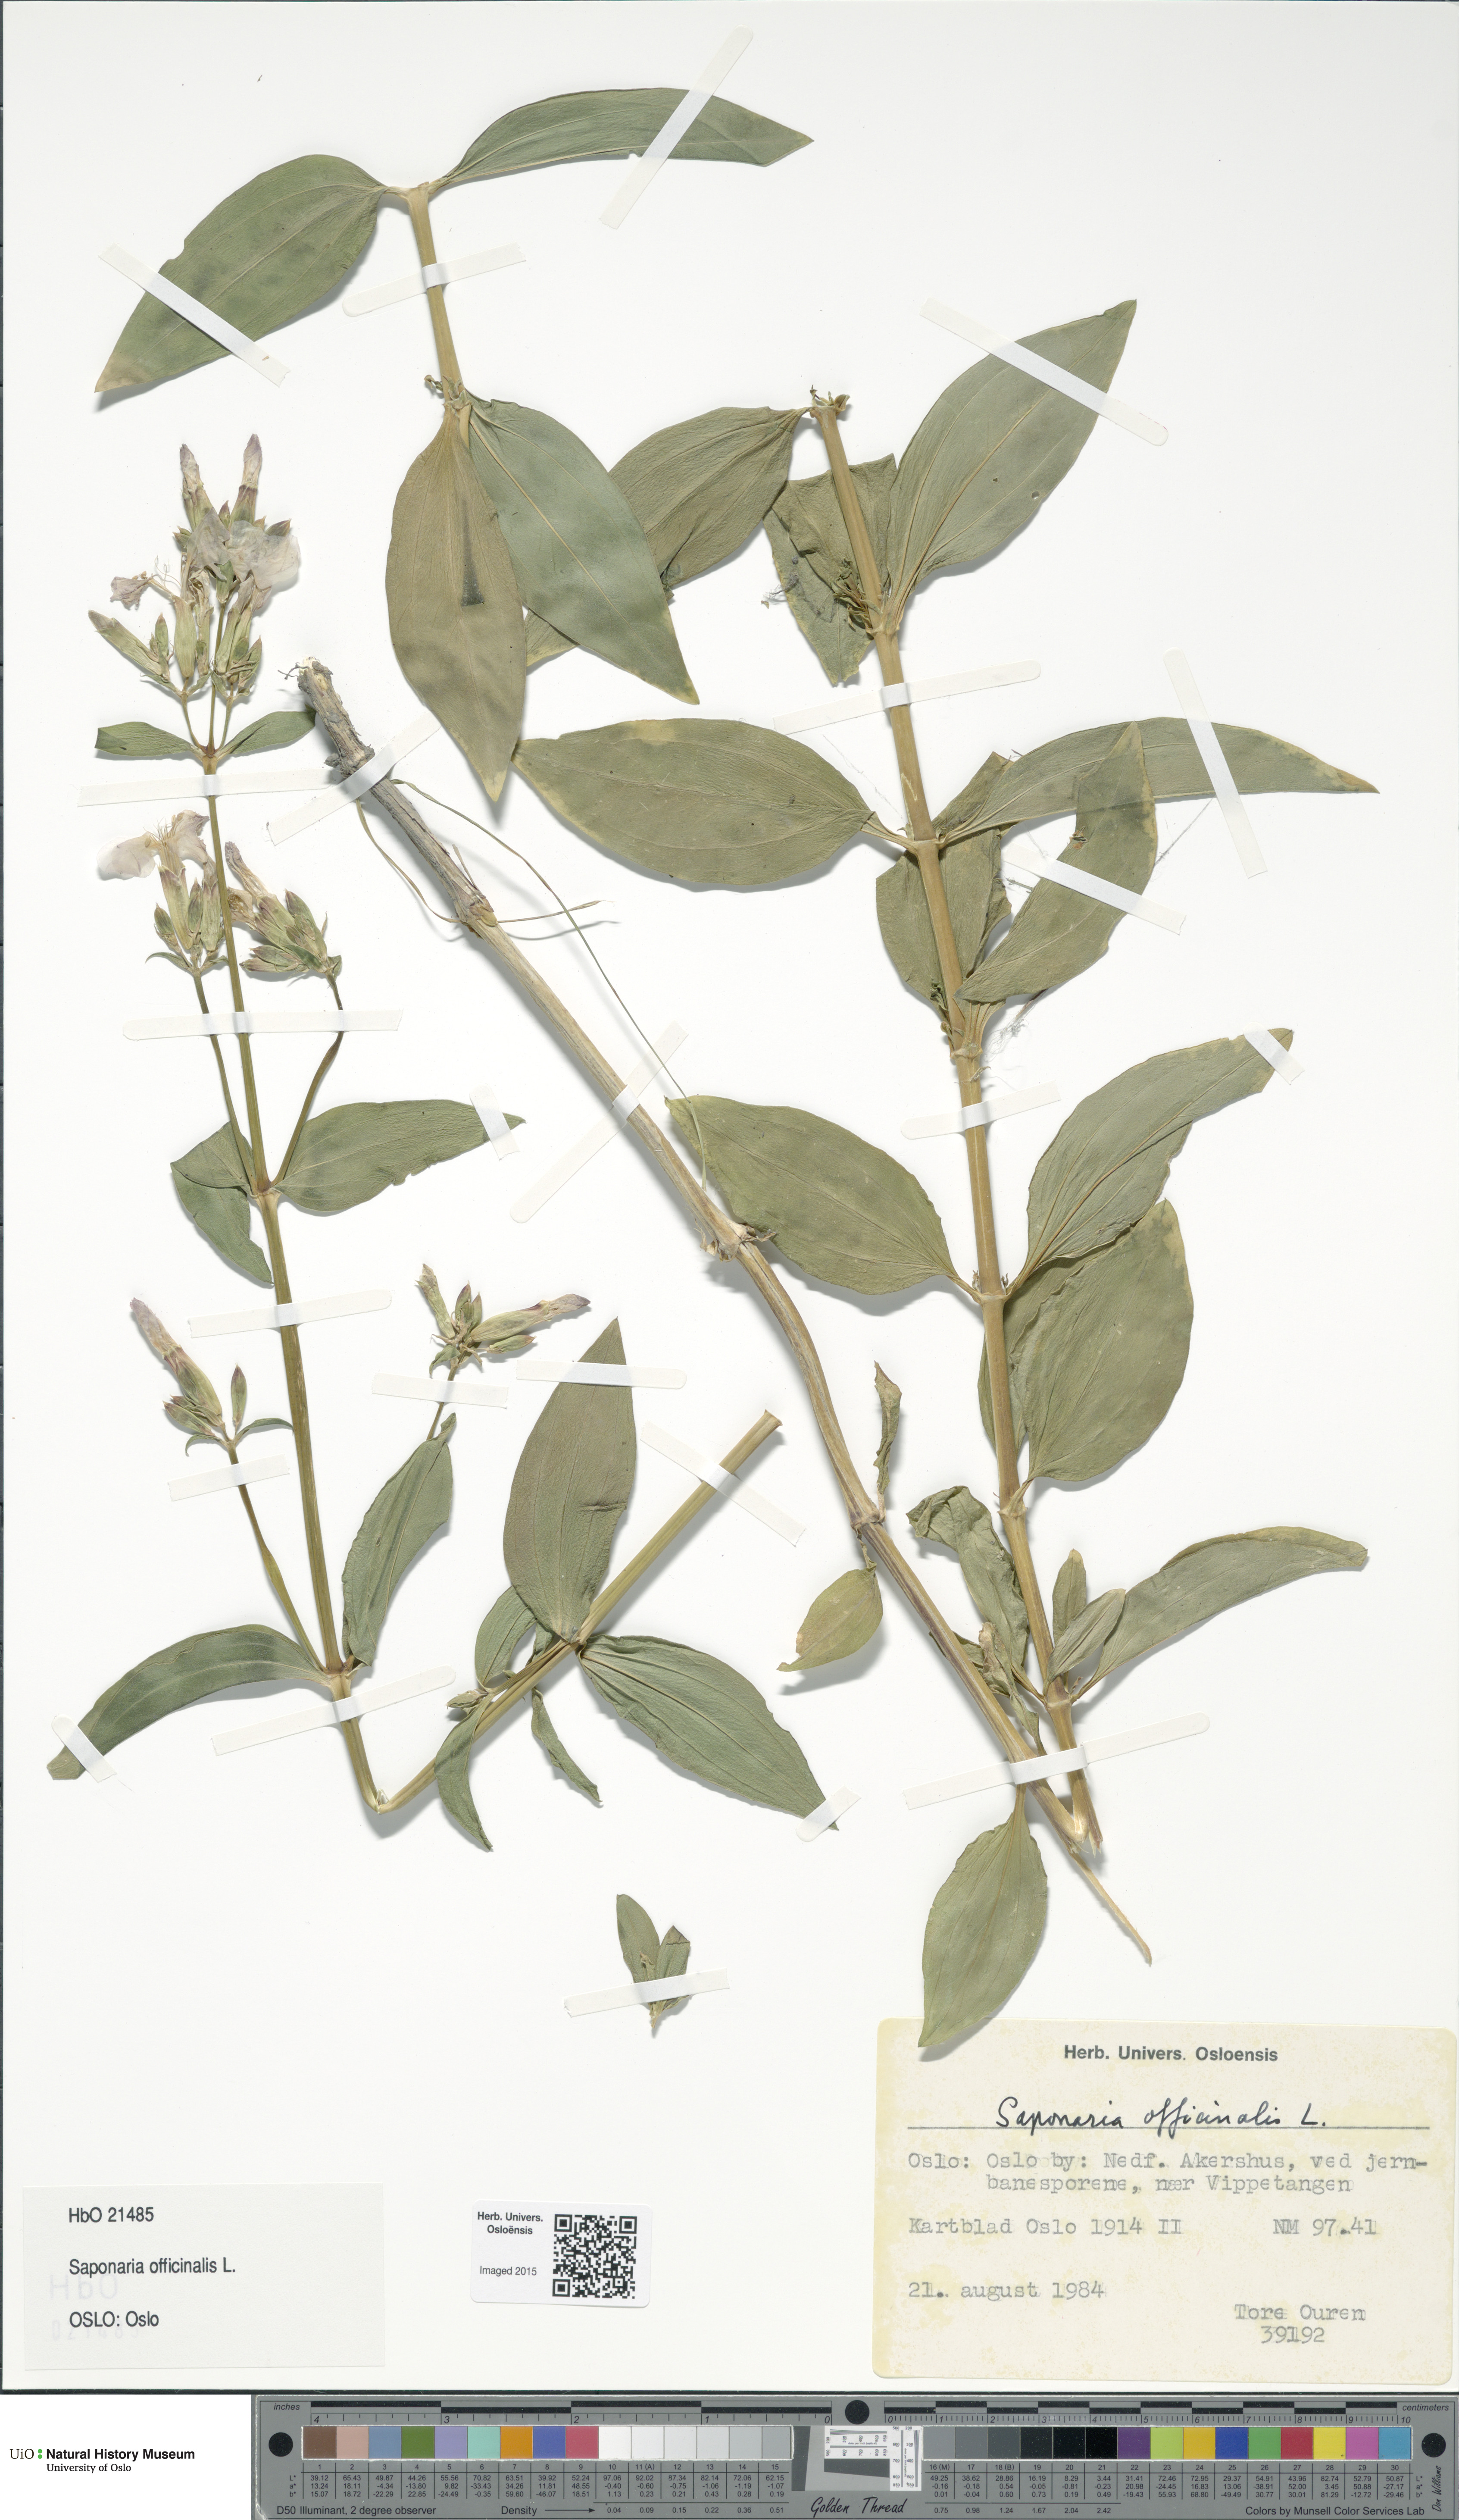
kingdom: Plantae
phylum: Tracheophyta
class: Magnoliopsida
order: Caryophyllales
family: Caryophyllaceae
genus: Saponaria
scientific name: Saponaria officinalis
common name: Soapwort
